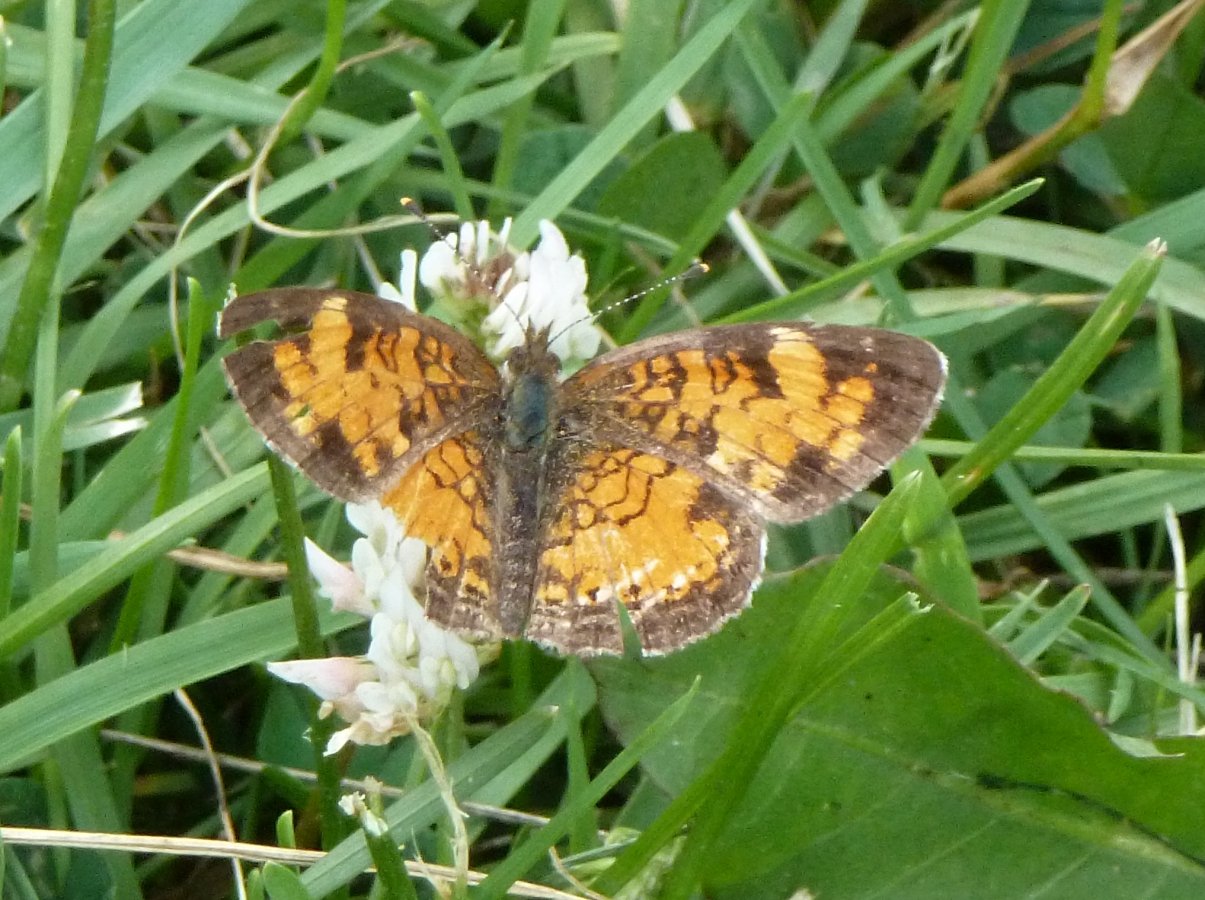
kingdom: Animalia
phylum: Arthropoda
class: Insecta
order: Lepidoptera
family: Nymphalidae
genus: Phyciodes
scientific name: Phyciodes tharos
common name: Northern Crescent
